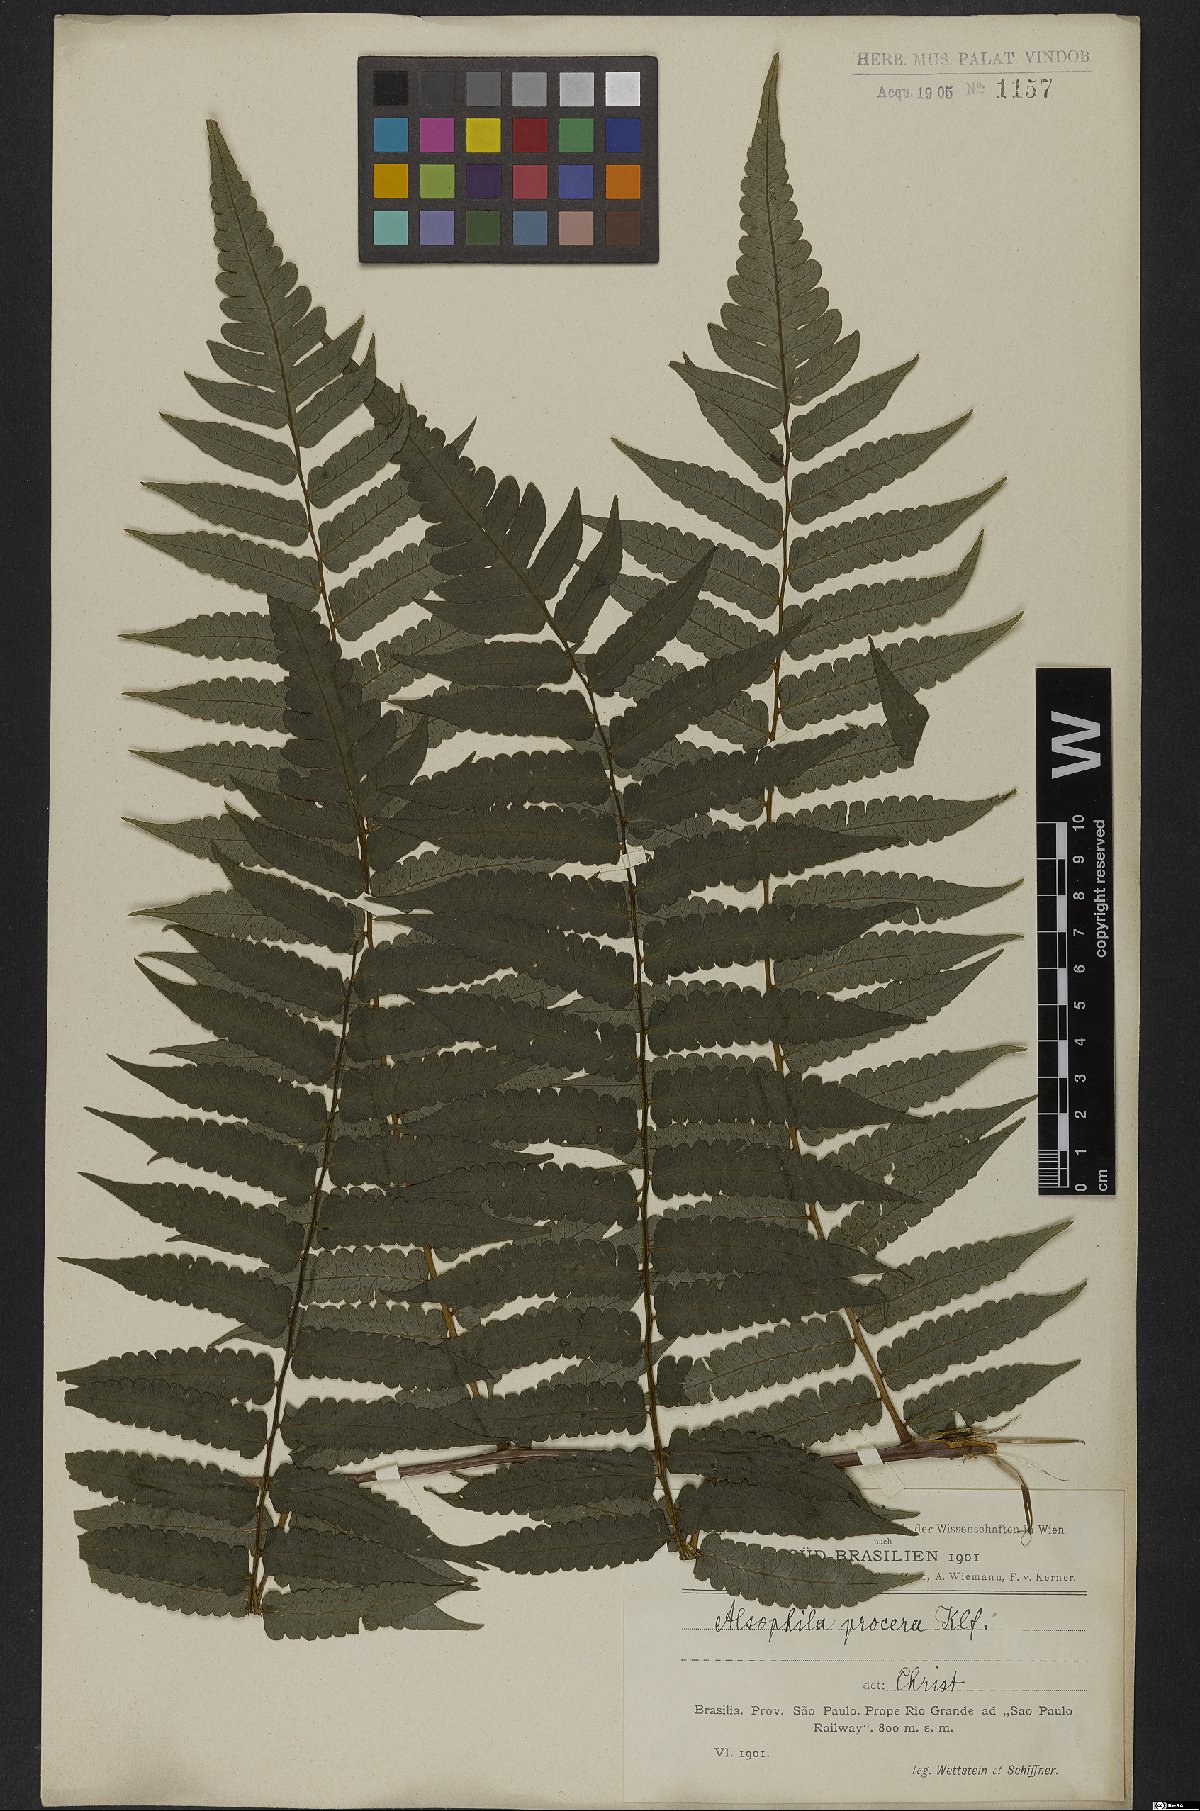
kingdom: Plantae
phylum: Tracheophyta
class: Polypodiopsida
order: Cyatheales
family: Cyatheaceae
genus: Cyathea
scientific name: Cyathea pungens
